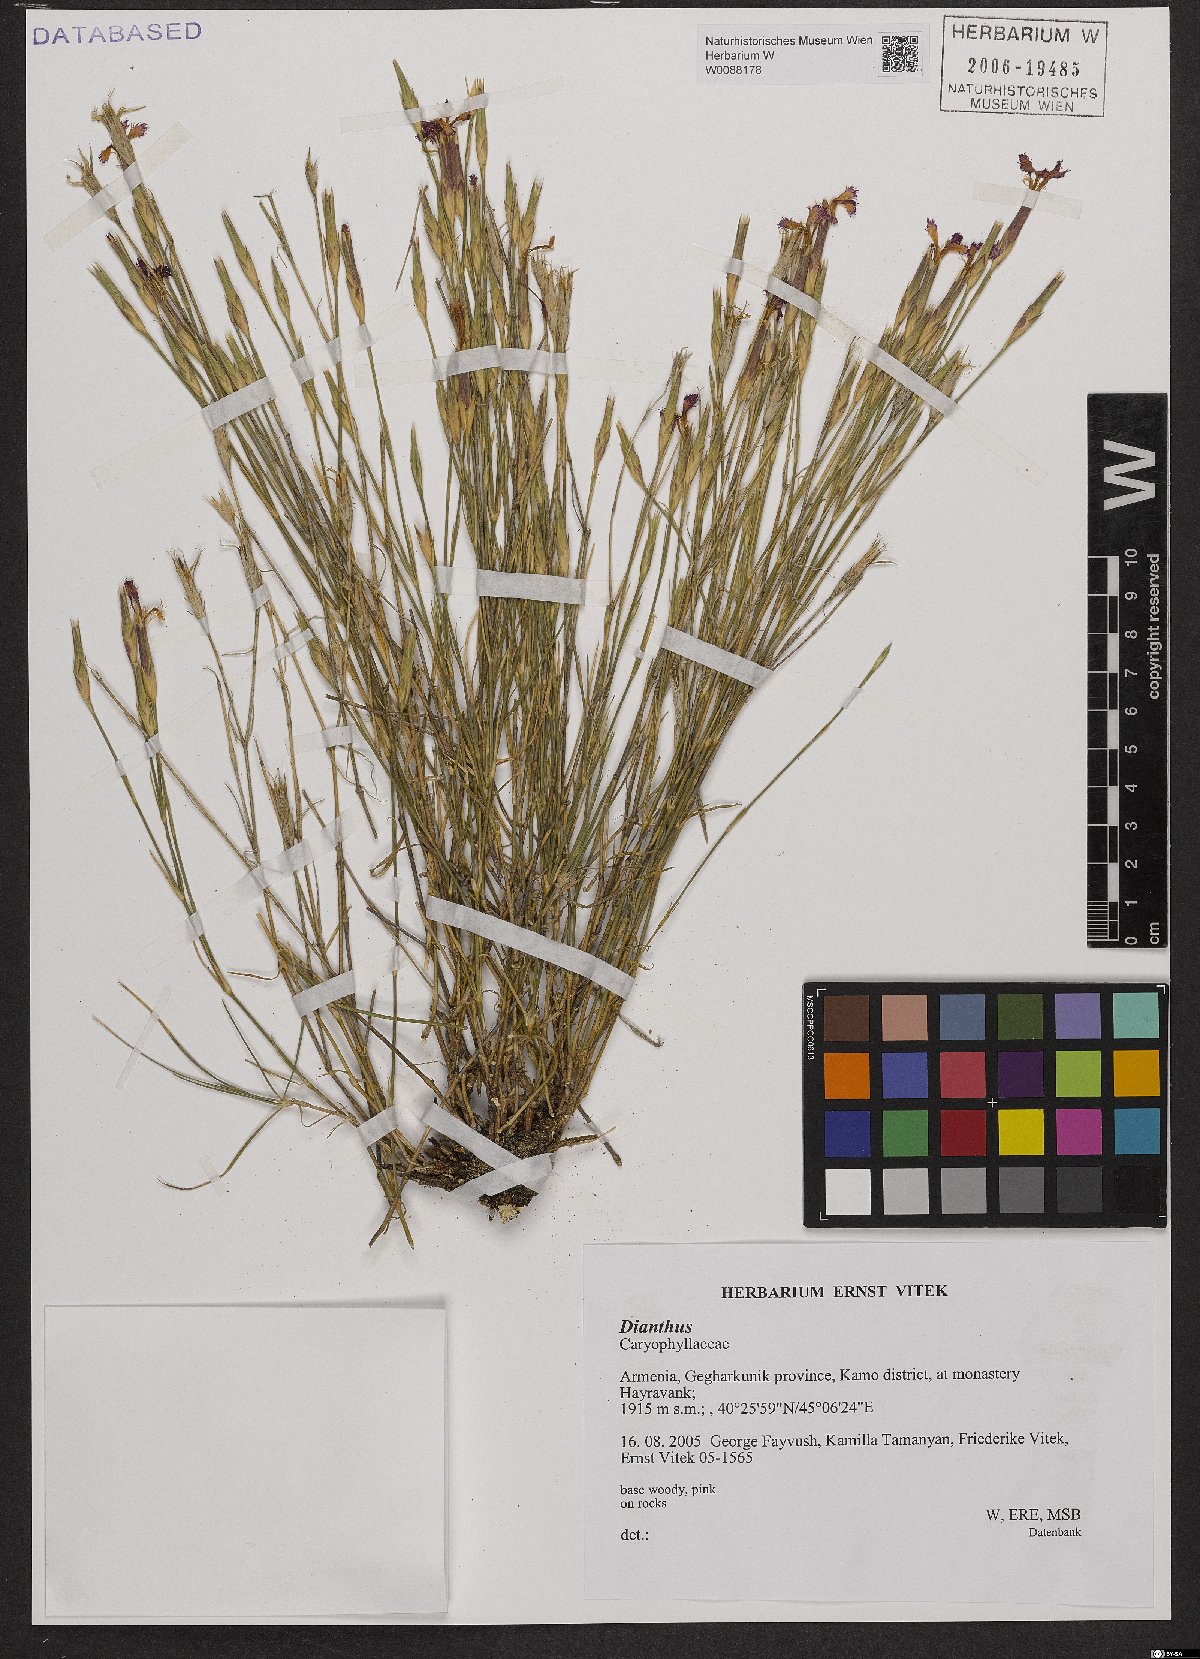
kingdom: Plantae
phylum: Tracheophyta
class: Magnoliopsida
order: Caryophyllales
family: Caryophyllaceae
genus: Dianthus
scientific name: Dianthus
